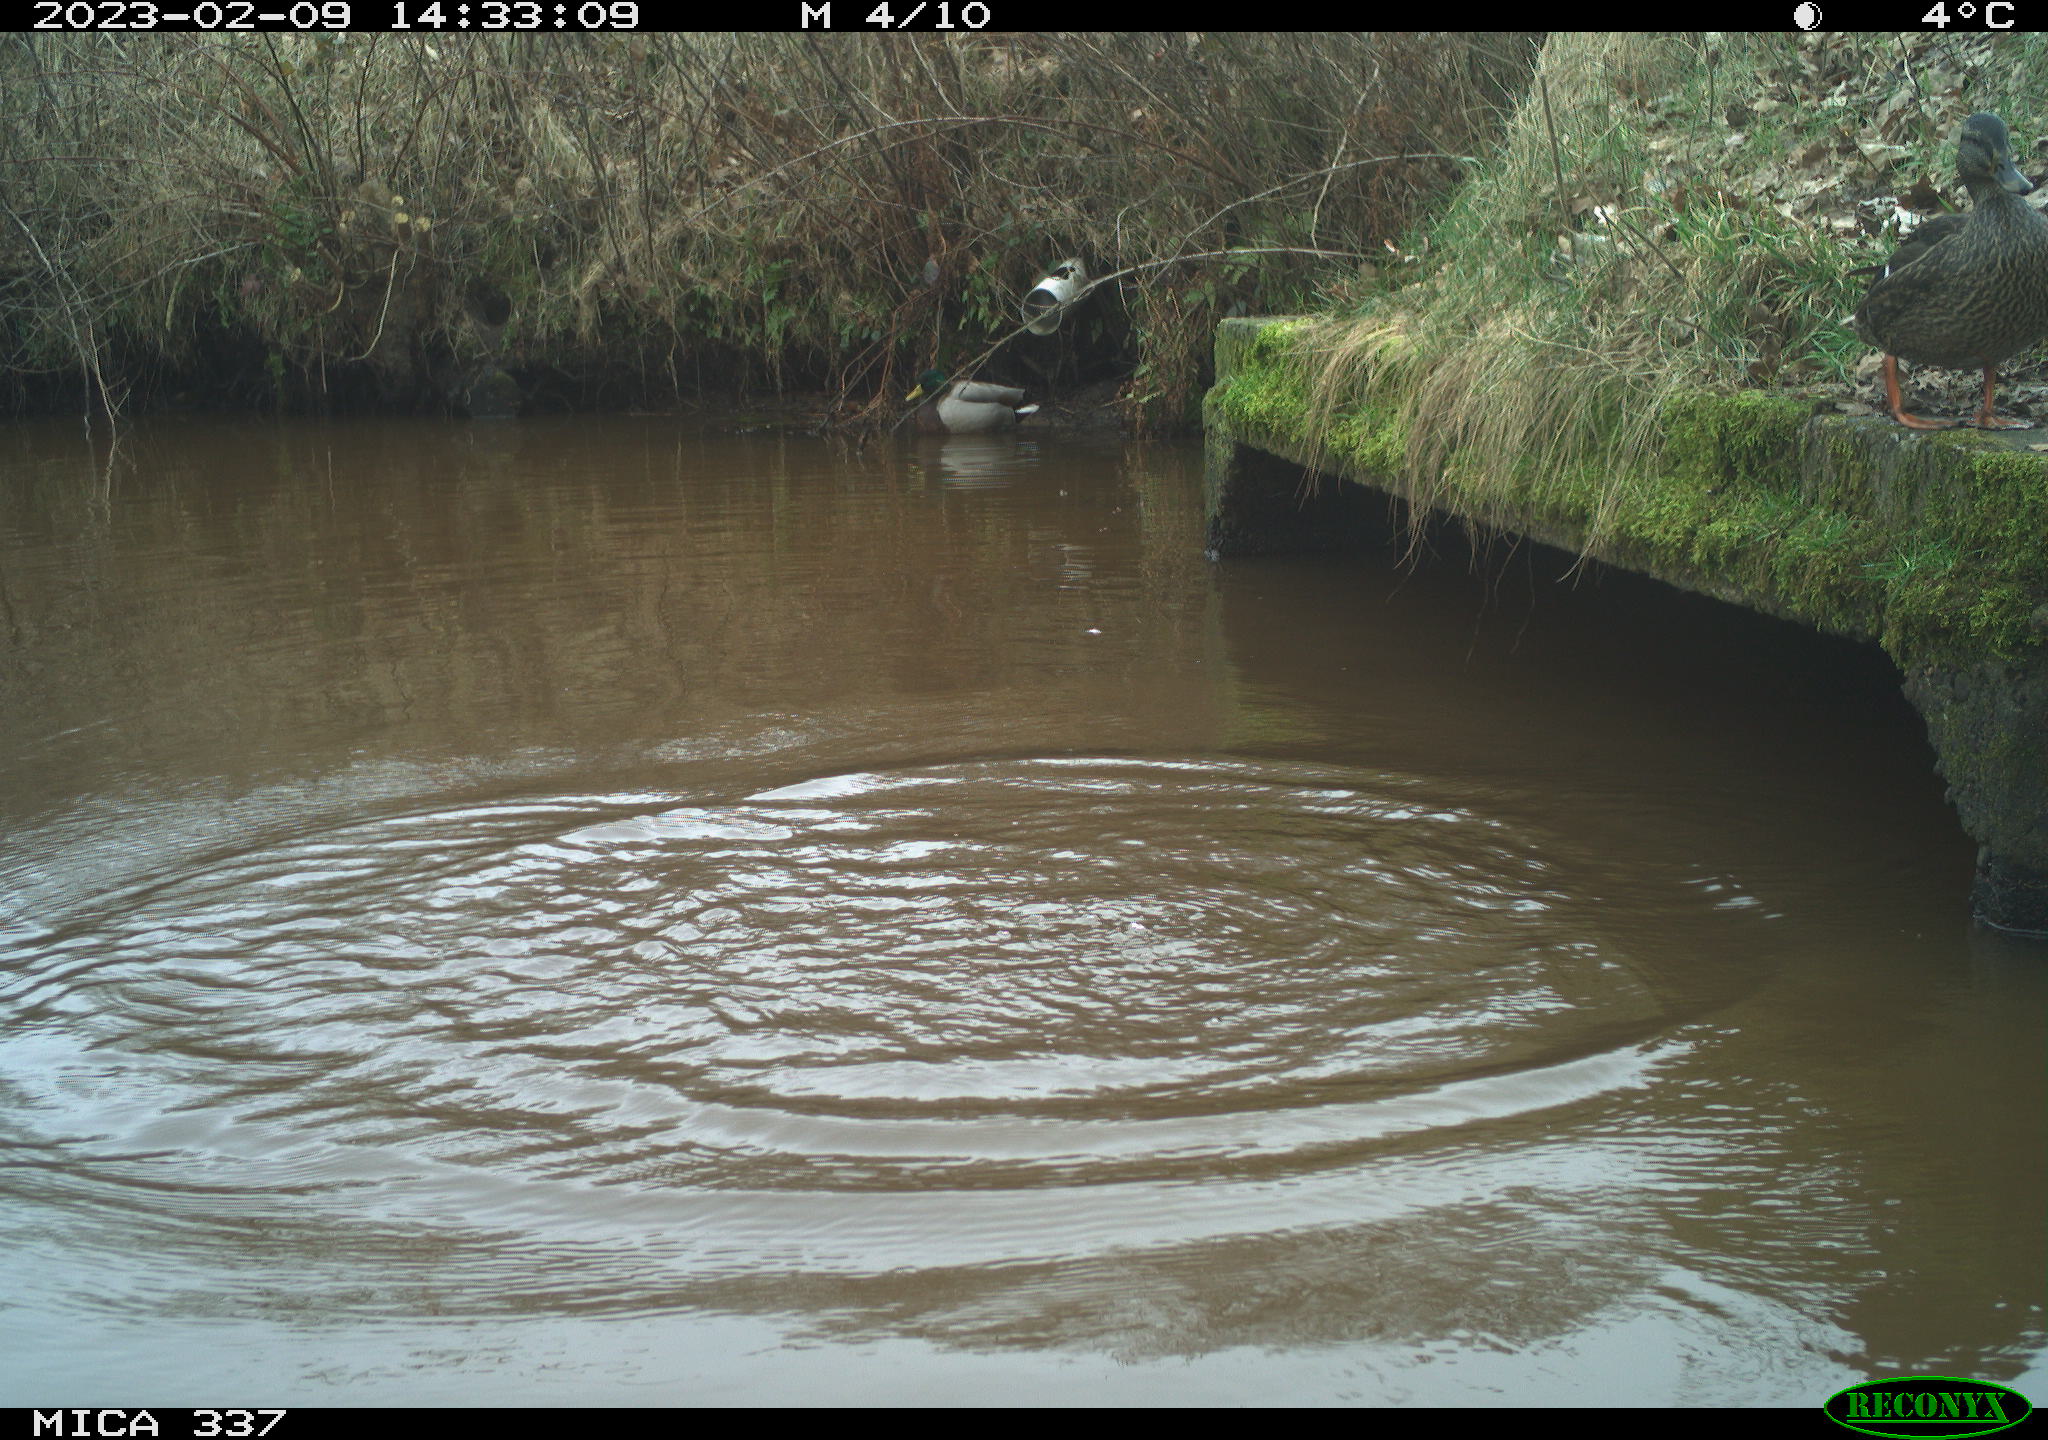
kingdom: Animalia
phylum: Chordata
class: Aves
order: Anseriformes
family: Anatidae
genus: Anas
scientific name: Anas
